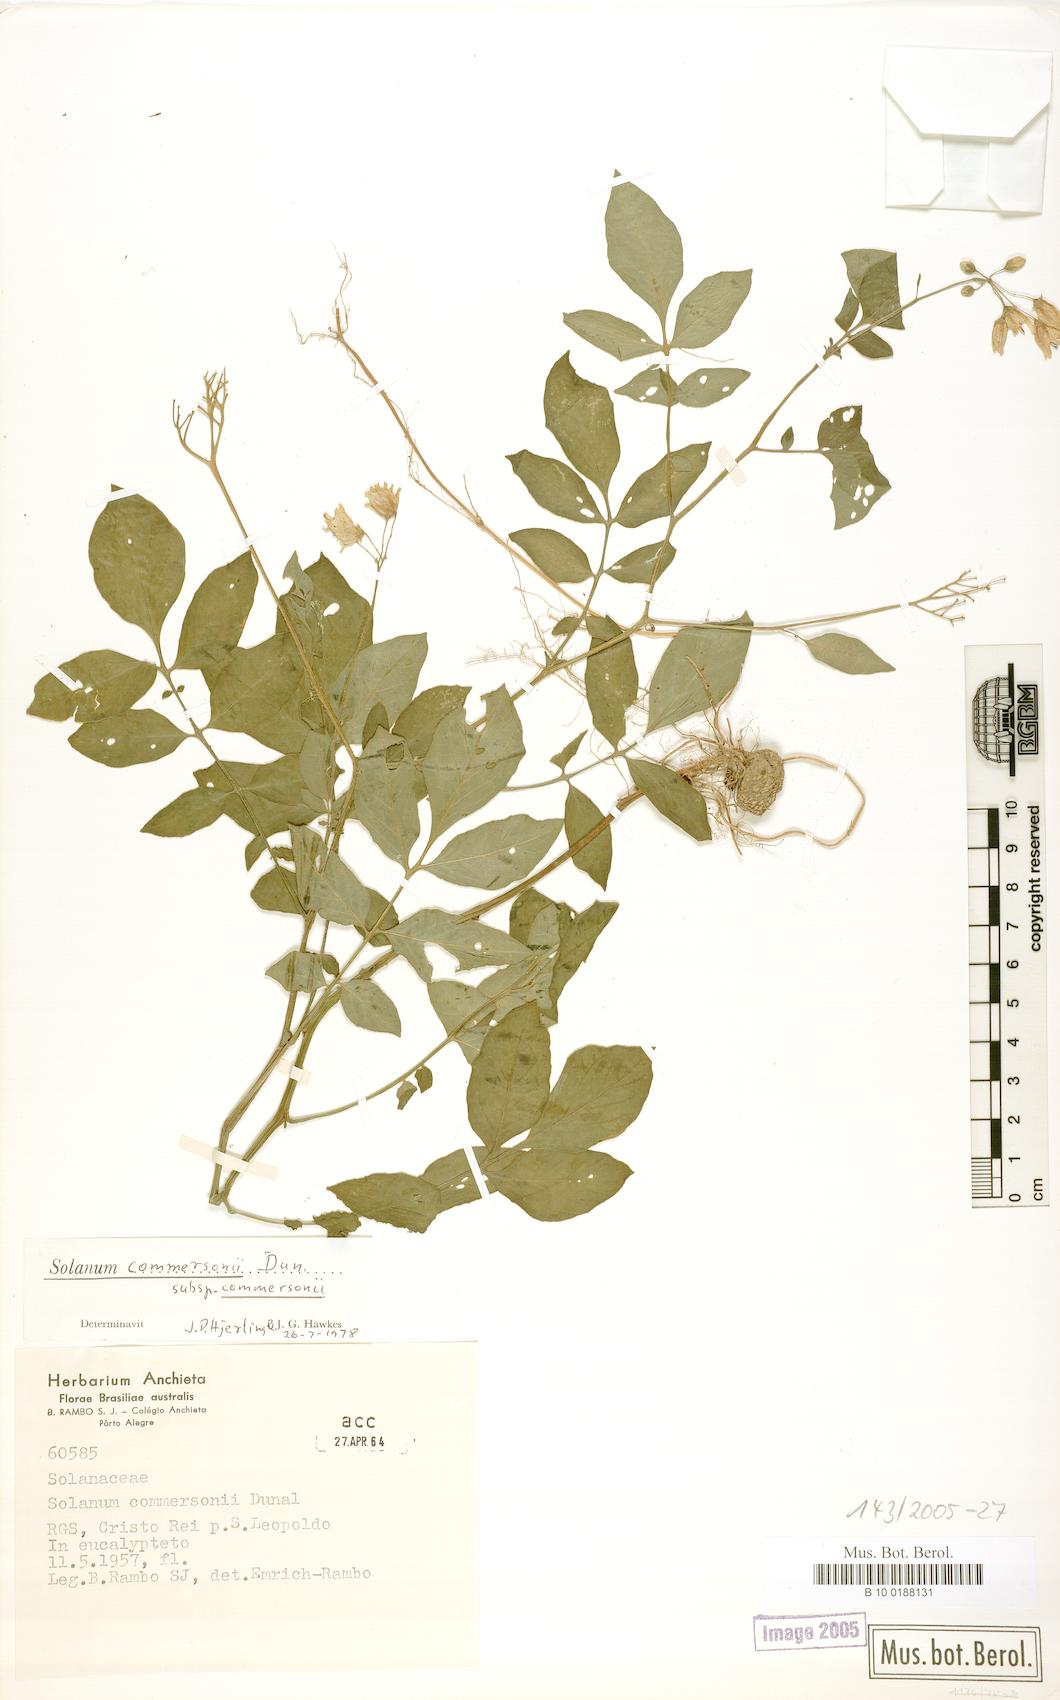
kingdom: Plantae
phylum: Tracheophyta
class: Magnoliopsida
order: Solanales
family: Solanaceae
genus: Solanum
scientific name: Solanum commersonii
